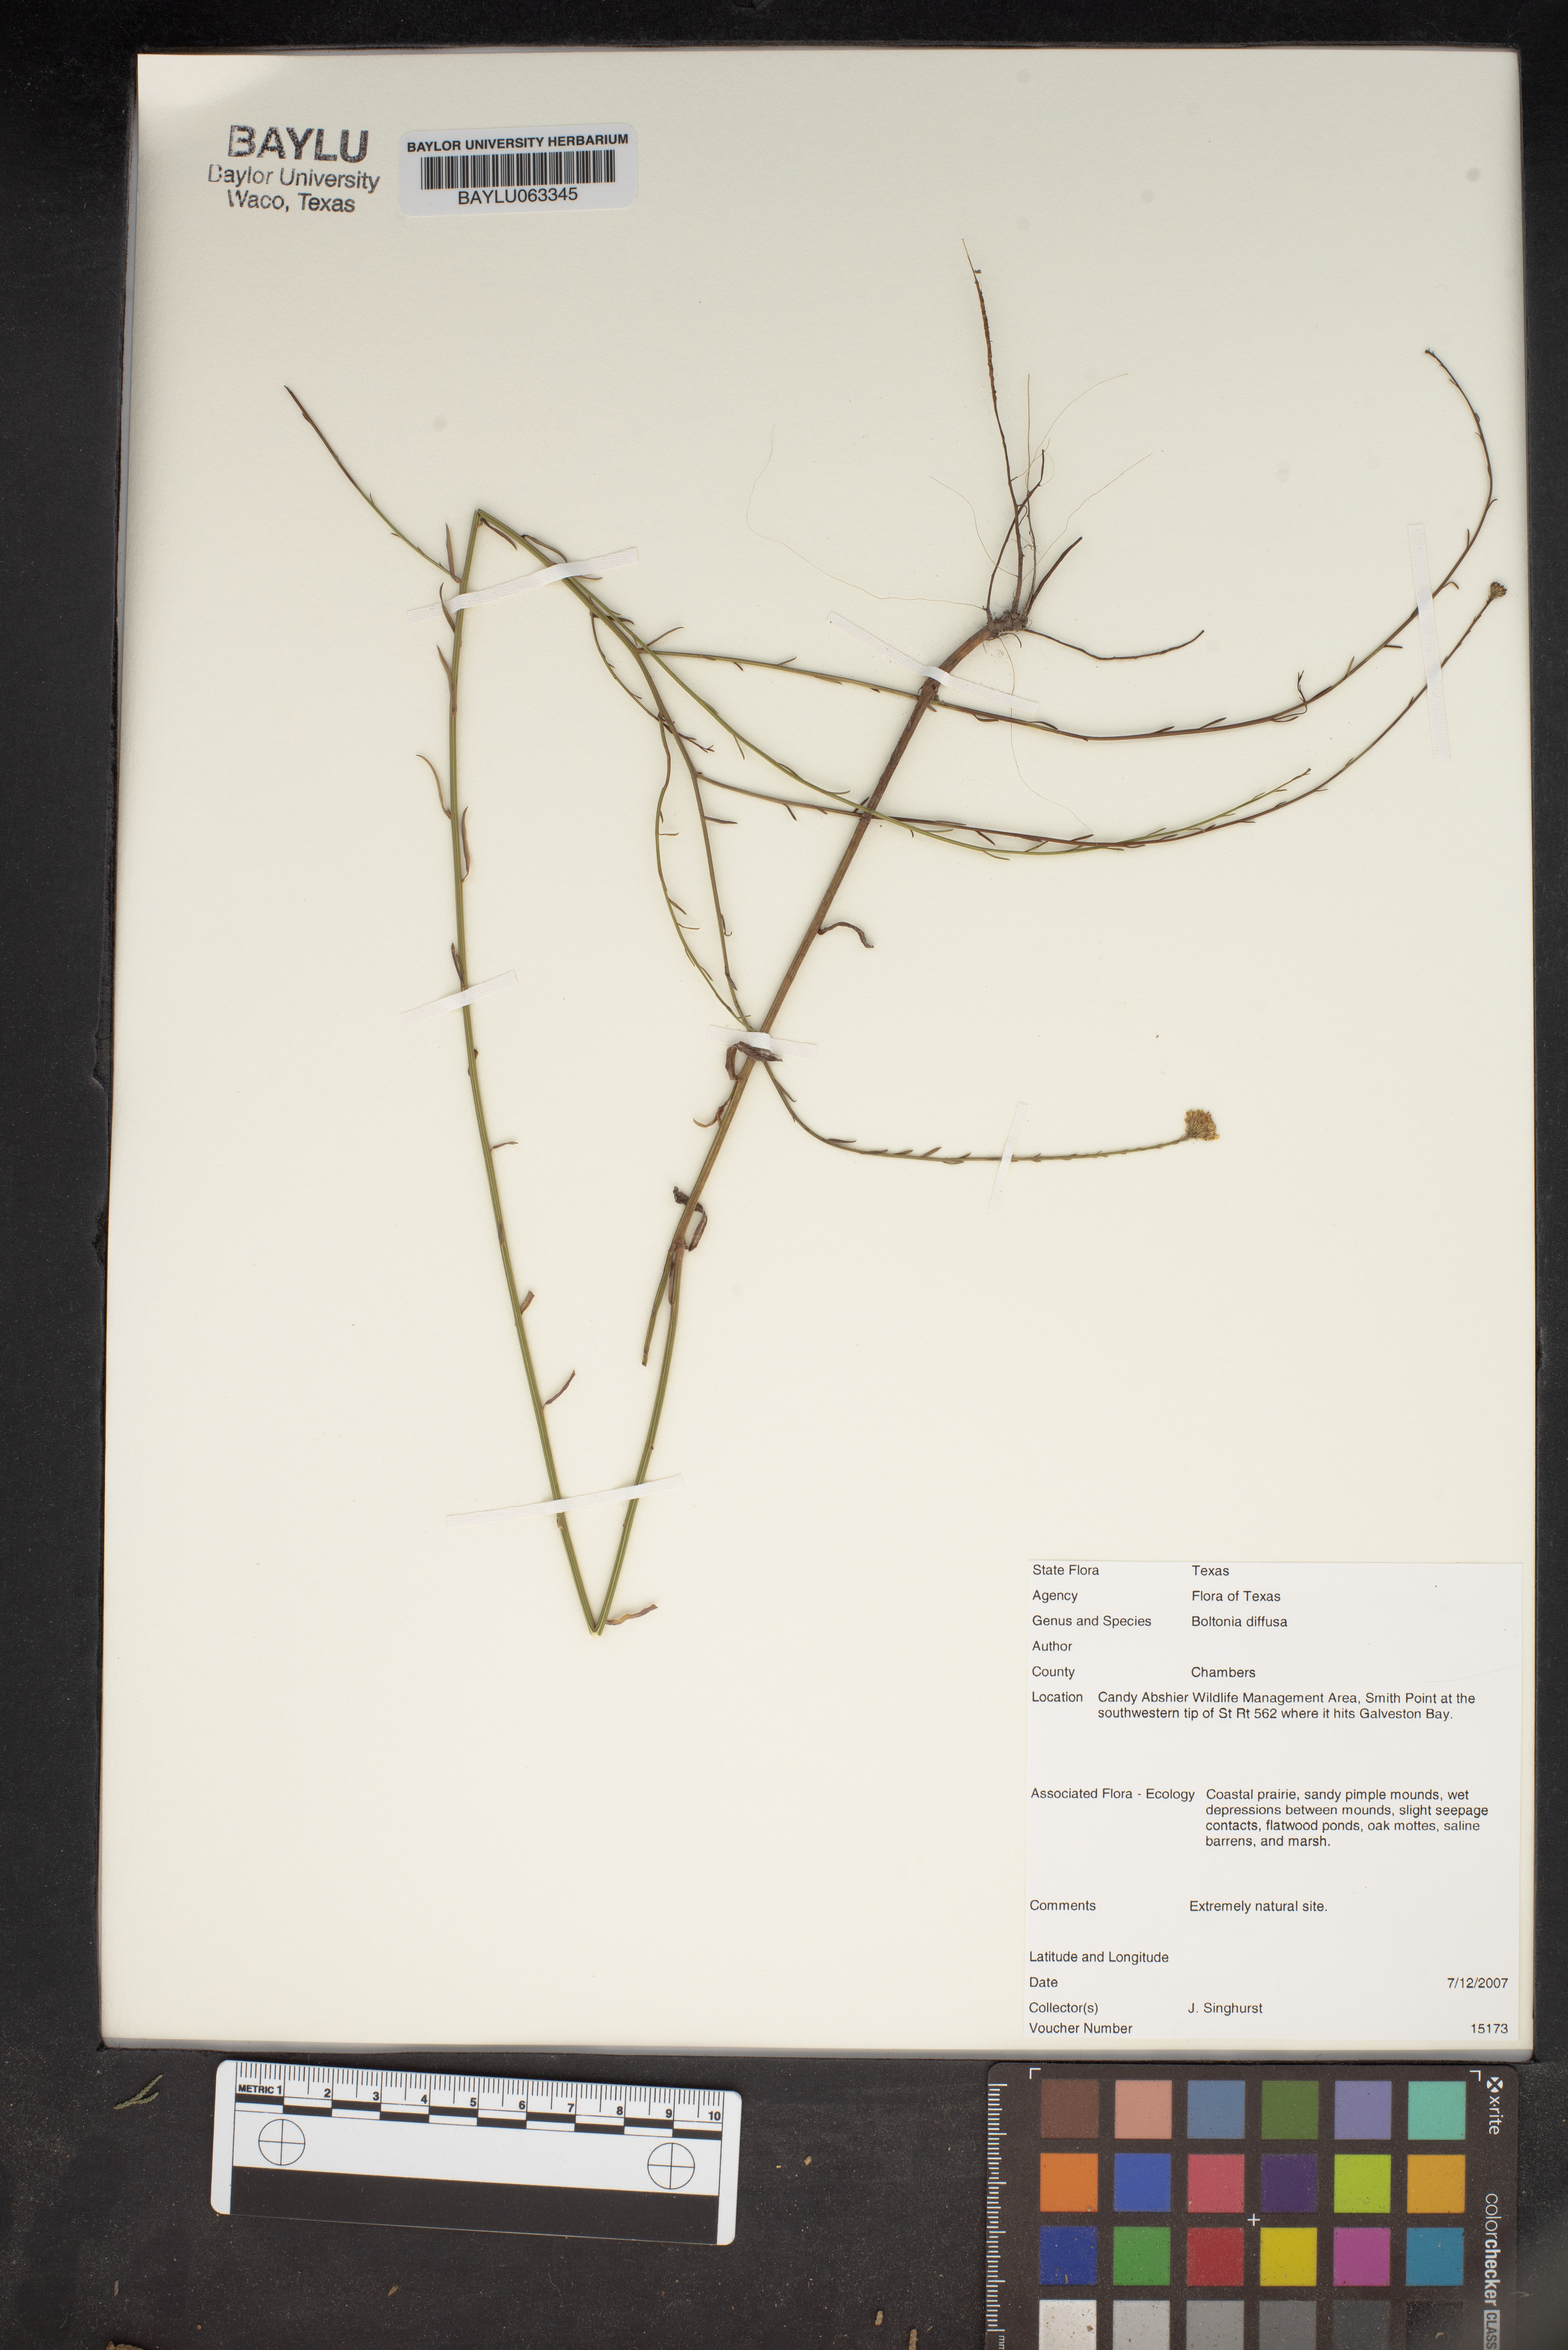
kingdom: Plantae
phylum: Tracheophyta
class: Magnoliopsida
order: Asterales
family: Asteraceae
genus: Boltonia
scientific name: Boltonia diffusa
